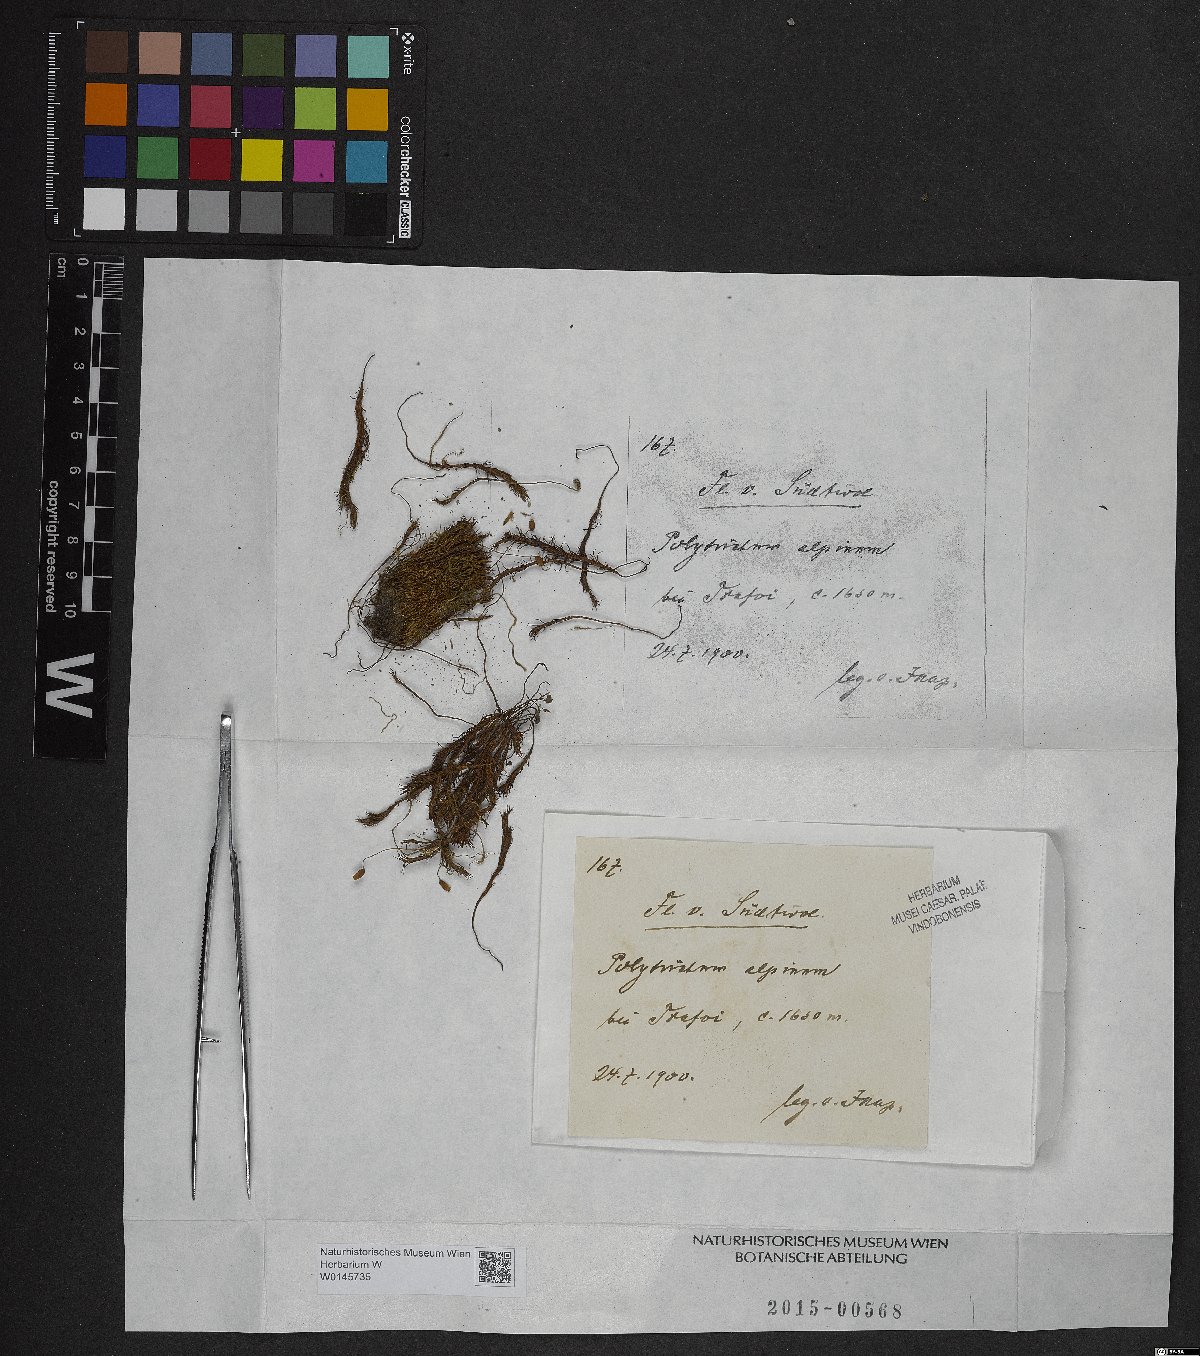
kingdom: Plantae
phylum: Bryophyta
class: Polytrichopsida
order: Polytrichales
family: Polytrichaceae
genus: Polytrichastrum
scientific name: Polytrichastrum alpinum
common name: Alpine haircap
